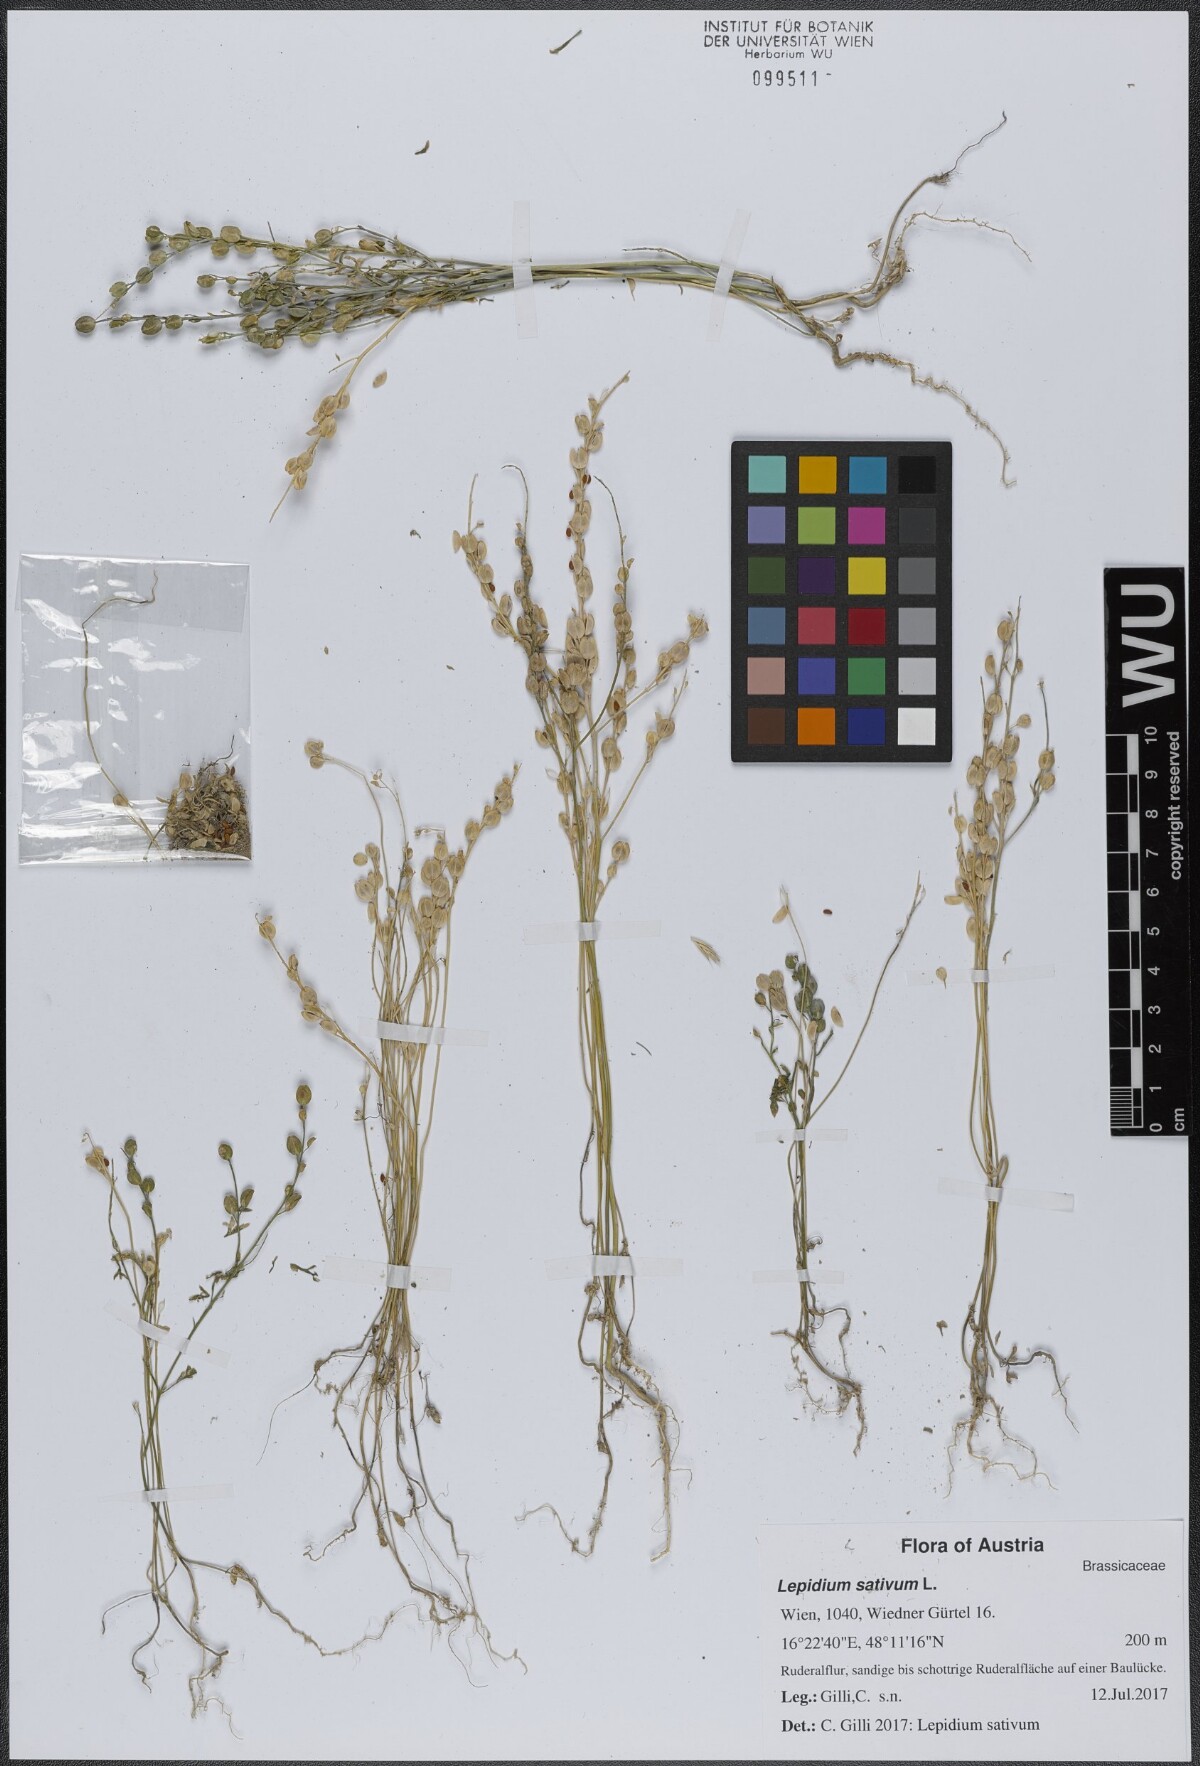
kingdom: Plantae
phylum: Tracheophyta
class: Magnoliopsida
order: Brassicales
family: Brassicaceae
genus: Lepidium
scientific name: Lepidium sativum
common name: Garden cress
